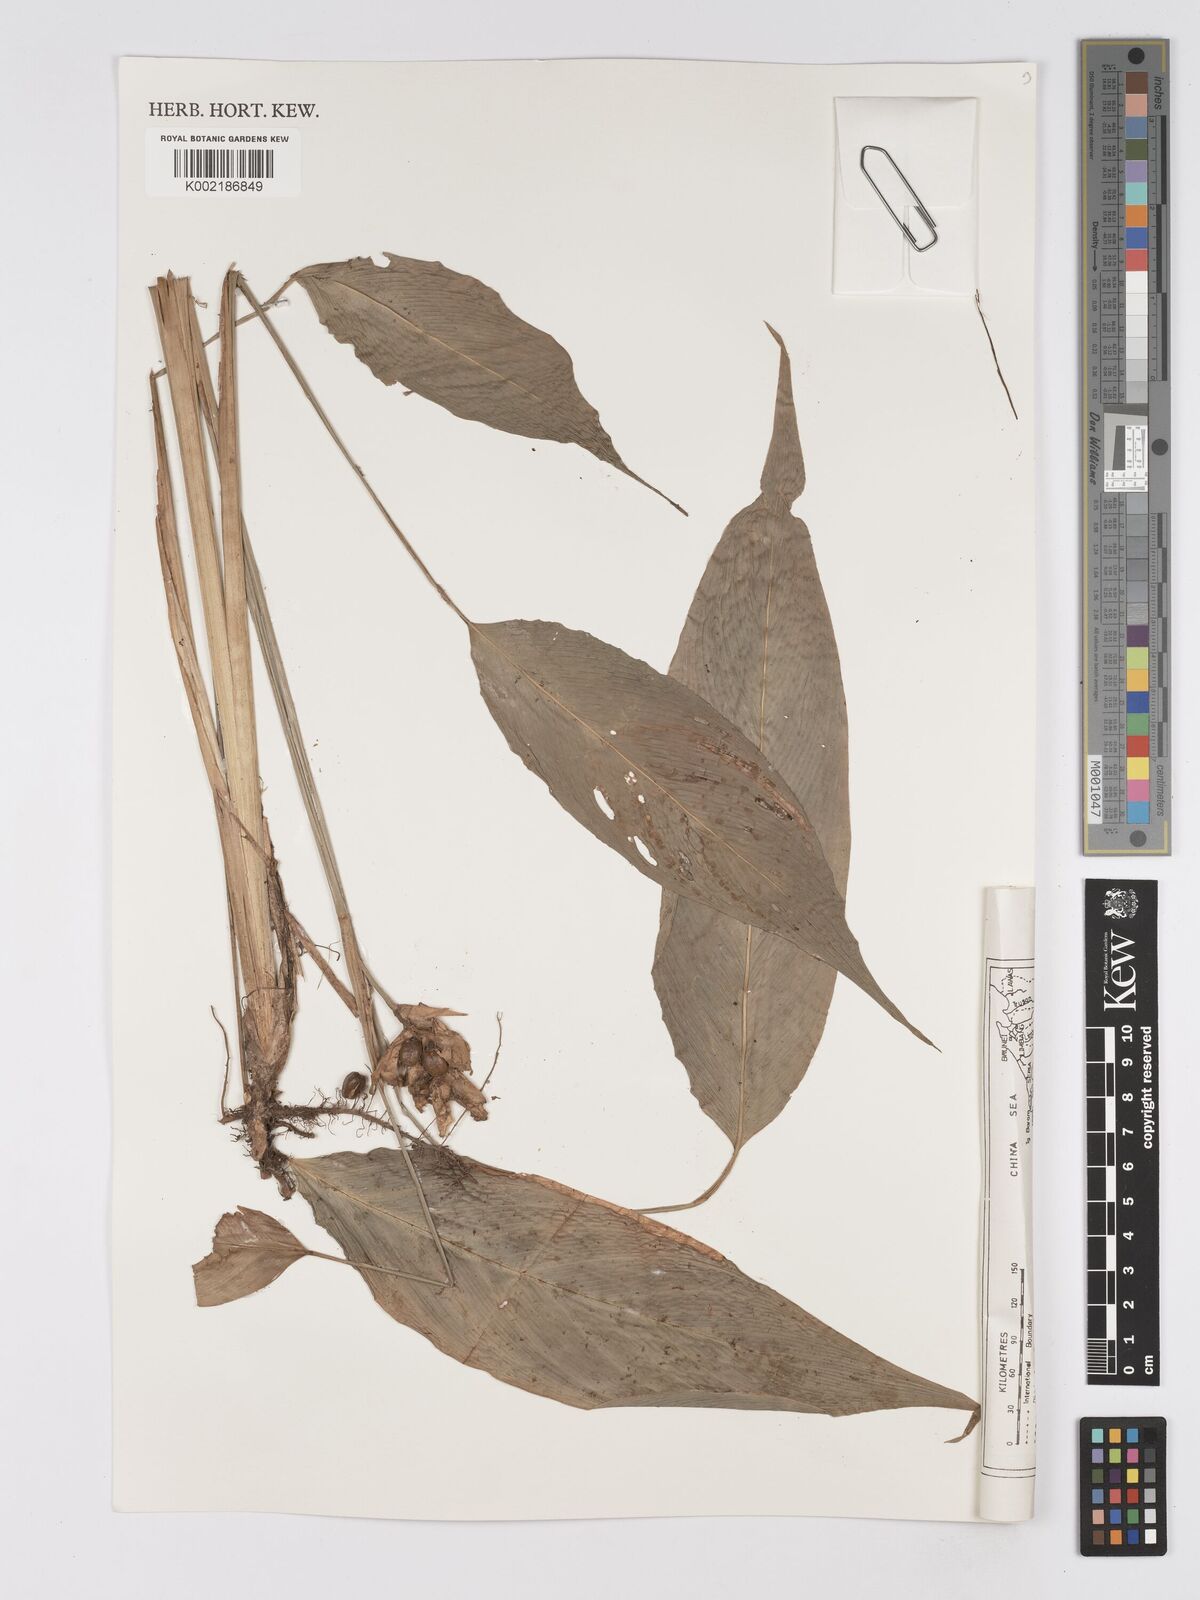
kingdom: Plantae
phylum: Tracheophyta
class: Liliopsida
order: Zingiberales
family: Marantaceae
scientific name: Marantaceae
